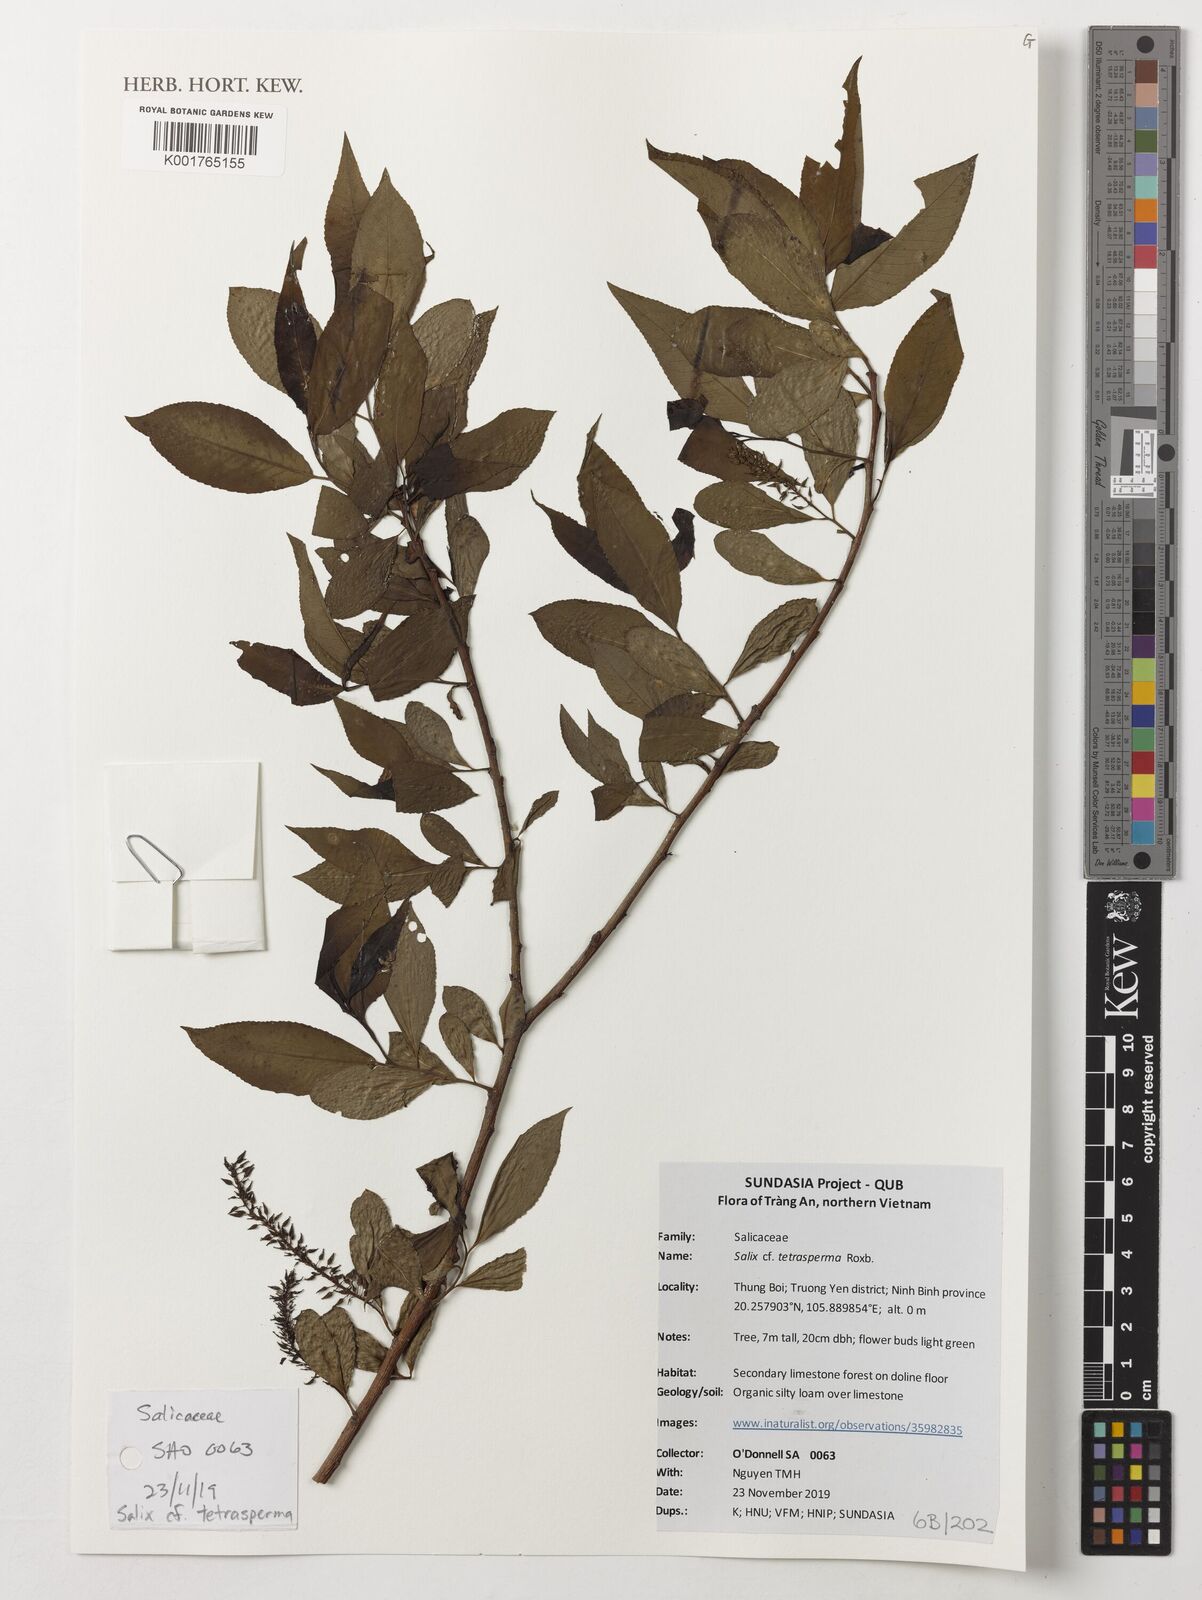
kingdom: Plantae
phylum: Tracheophyta
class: Magnoliopsida
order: Malpighiales
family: Salicaceae
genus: Salix
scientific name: Salix tetrasperma
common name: Indian willow
